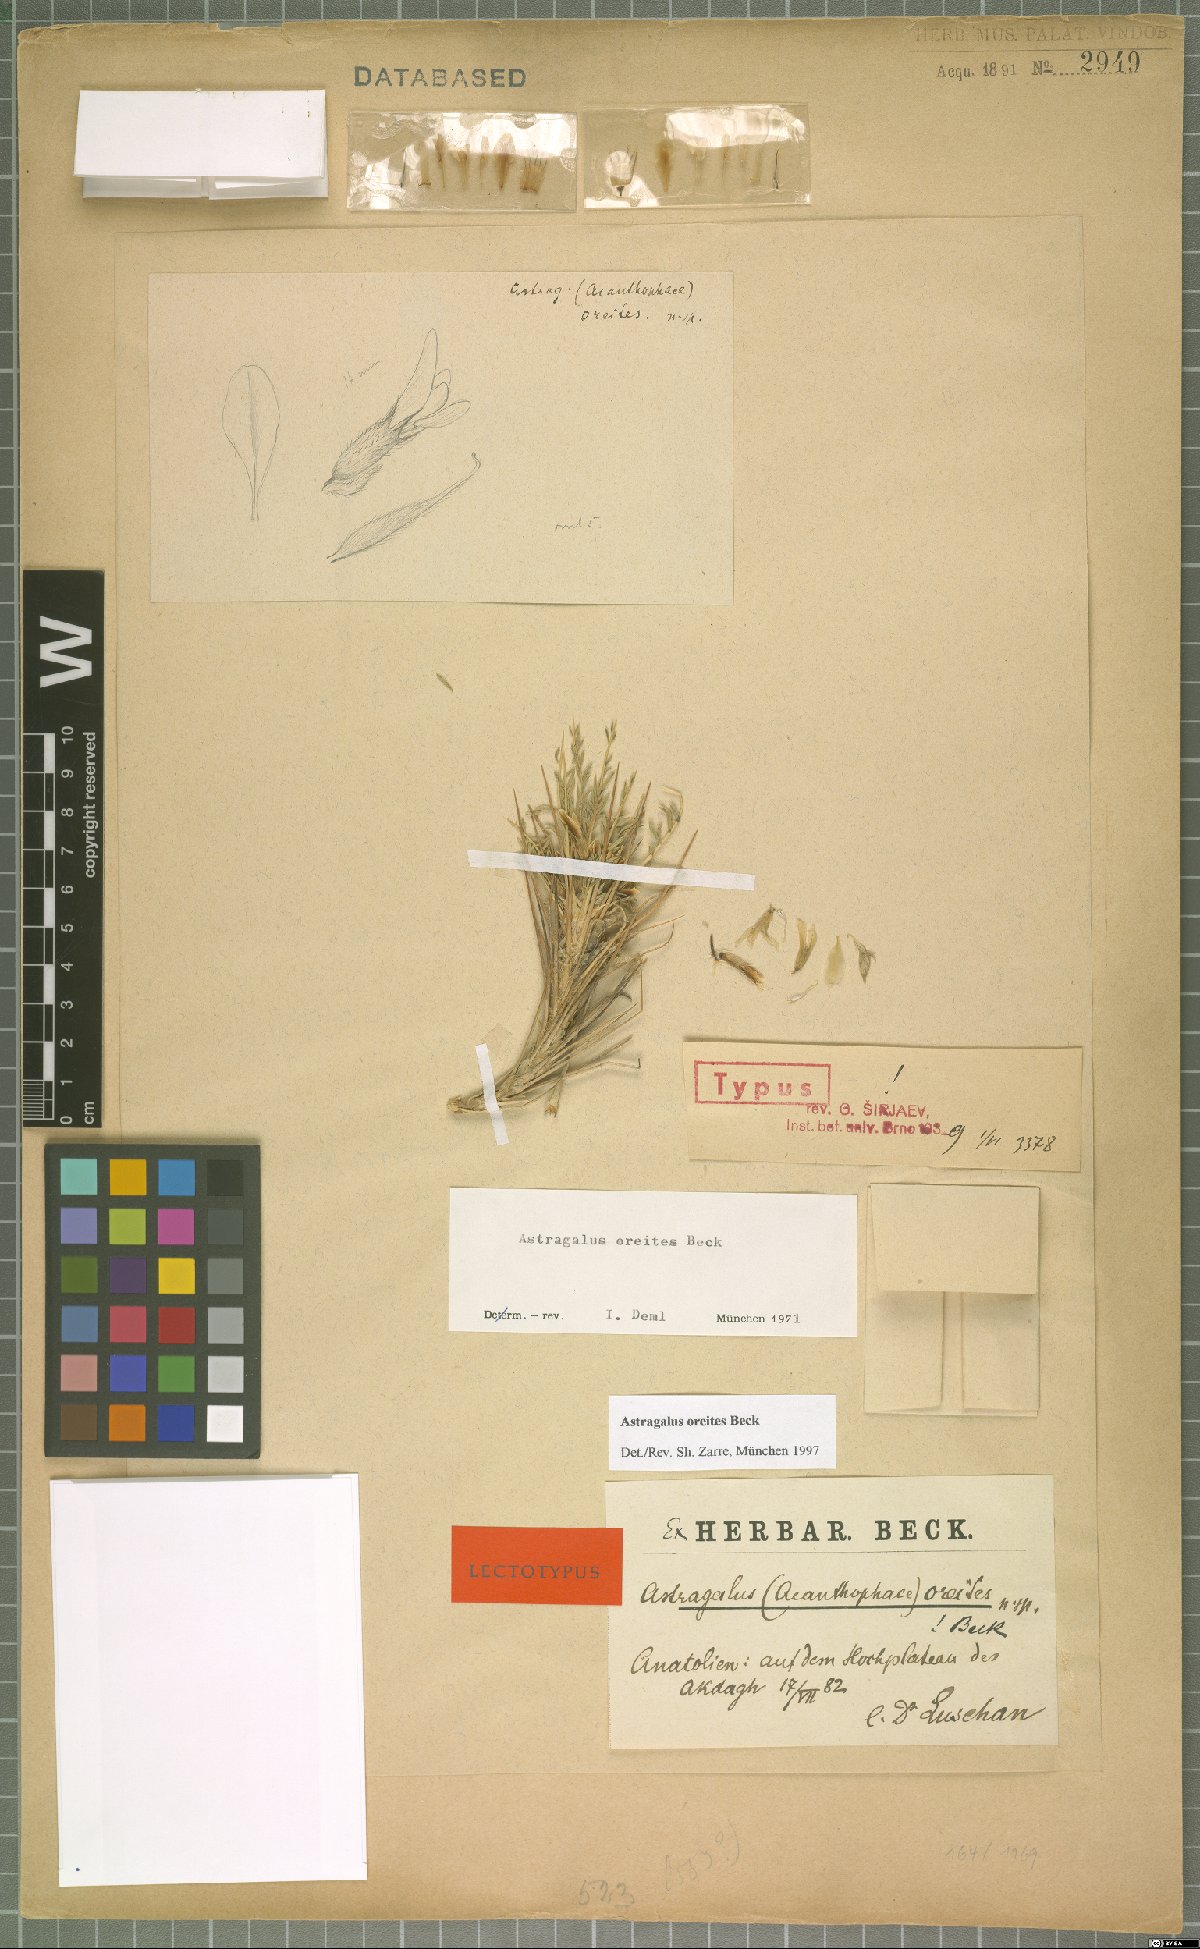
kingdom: Plantae
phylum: Tracheophyta
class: Magnoliopsida
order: Fabales
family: Fabaceae
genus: Astragalus
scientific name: Astragalus oreites
